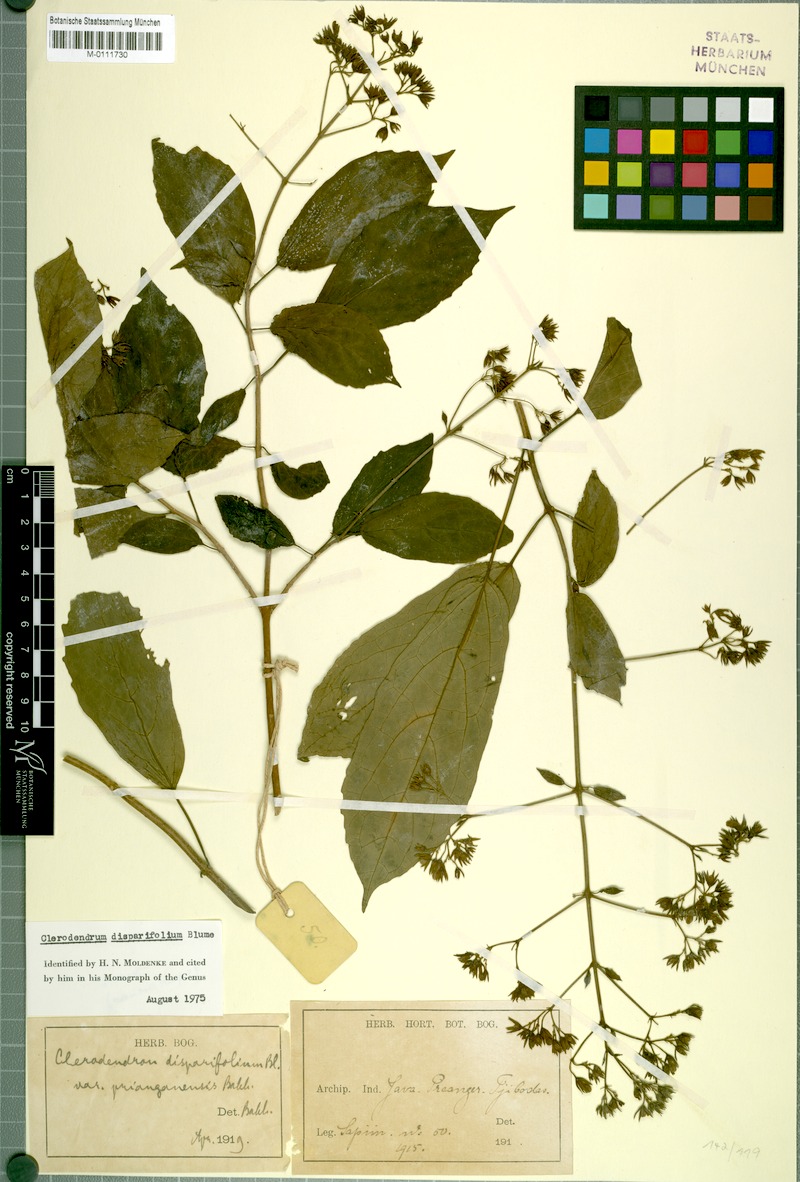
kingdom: Plantae
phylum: Tracheophyta
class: Magnoliopsida
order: Lamiales
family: Lamiaceae
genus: Clerodendrum
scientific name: Clerodendrum disparifolium
